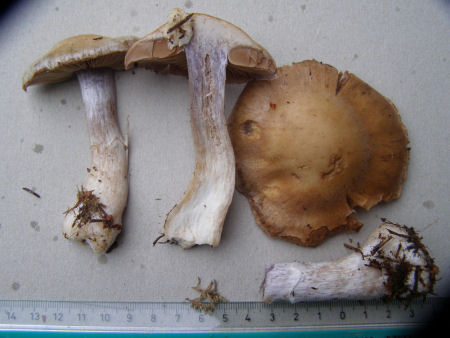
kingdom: Fungi
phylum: Basidiomycota
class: Agaricomycetes
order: Agaricales
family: Cortinariaceae
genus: Cortinarius
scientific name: Cortinarius quarciticus
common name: kvarts-slørhat
